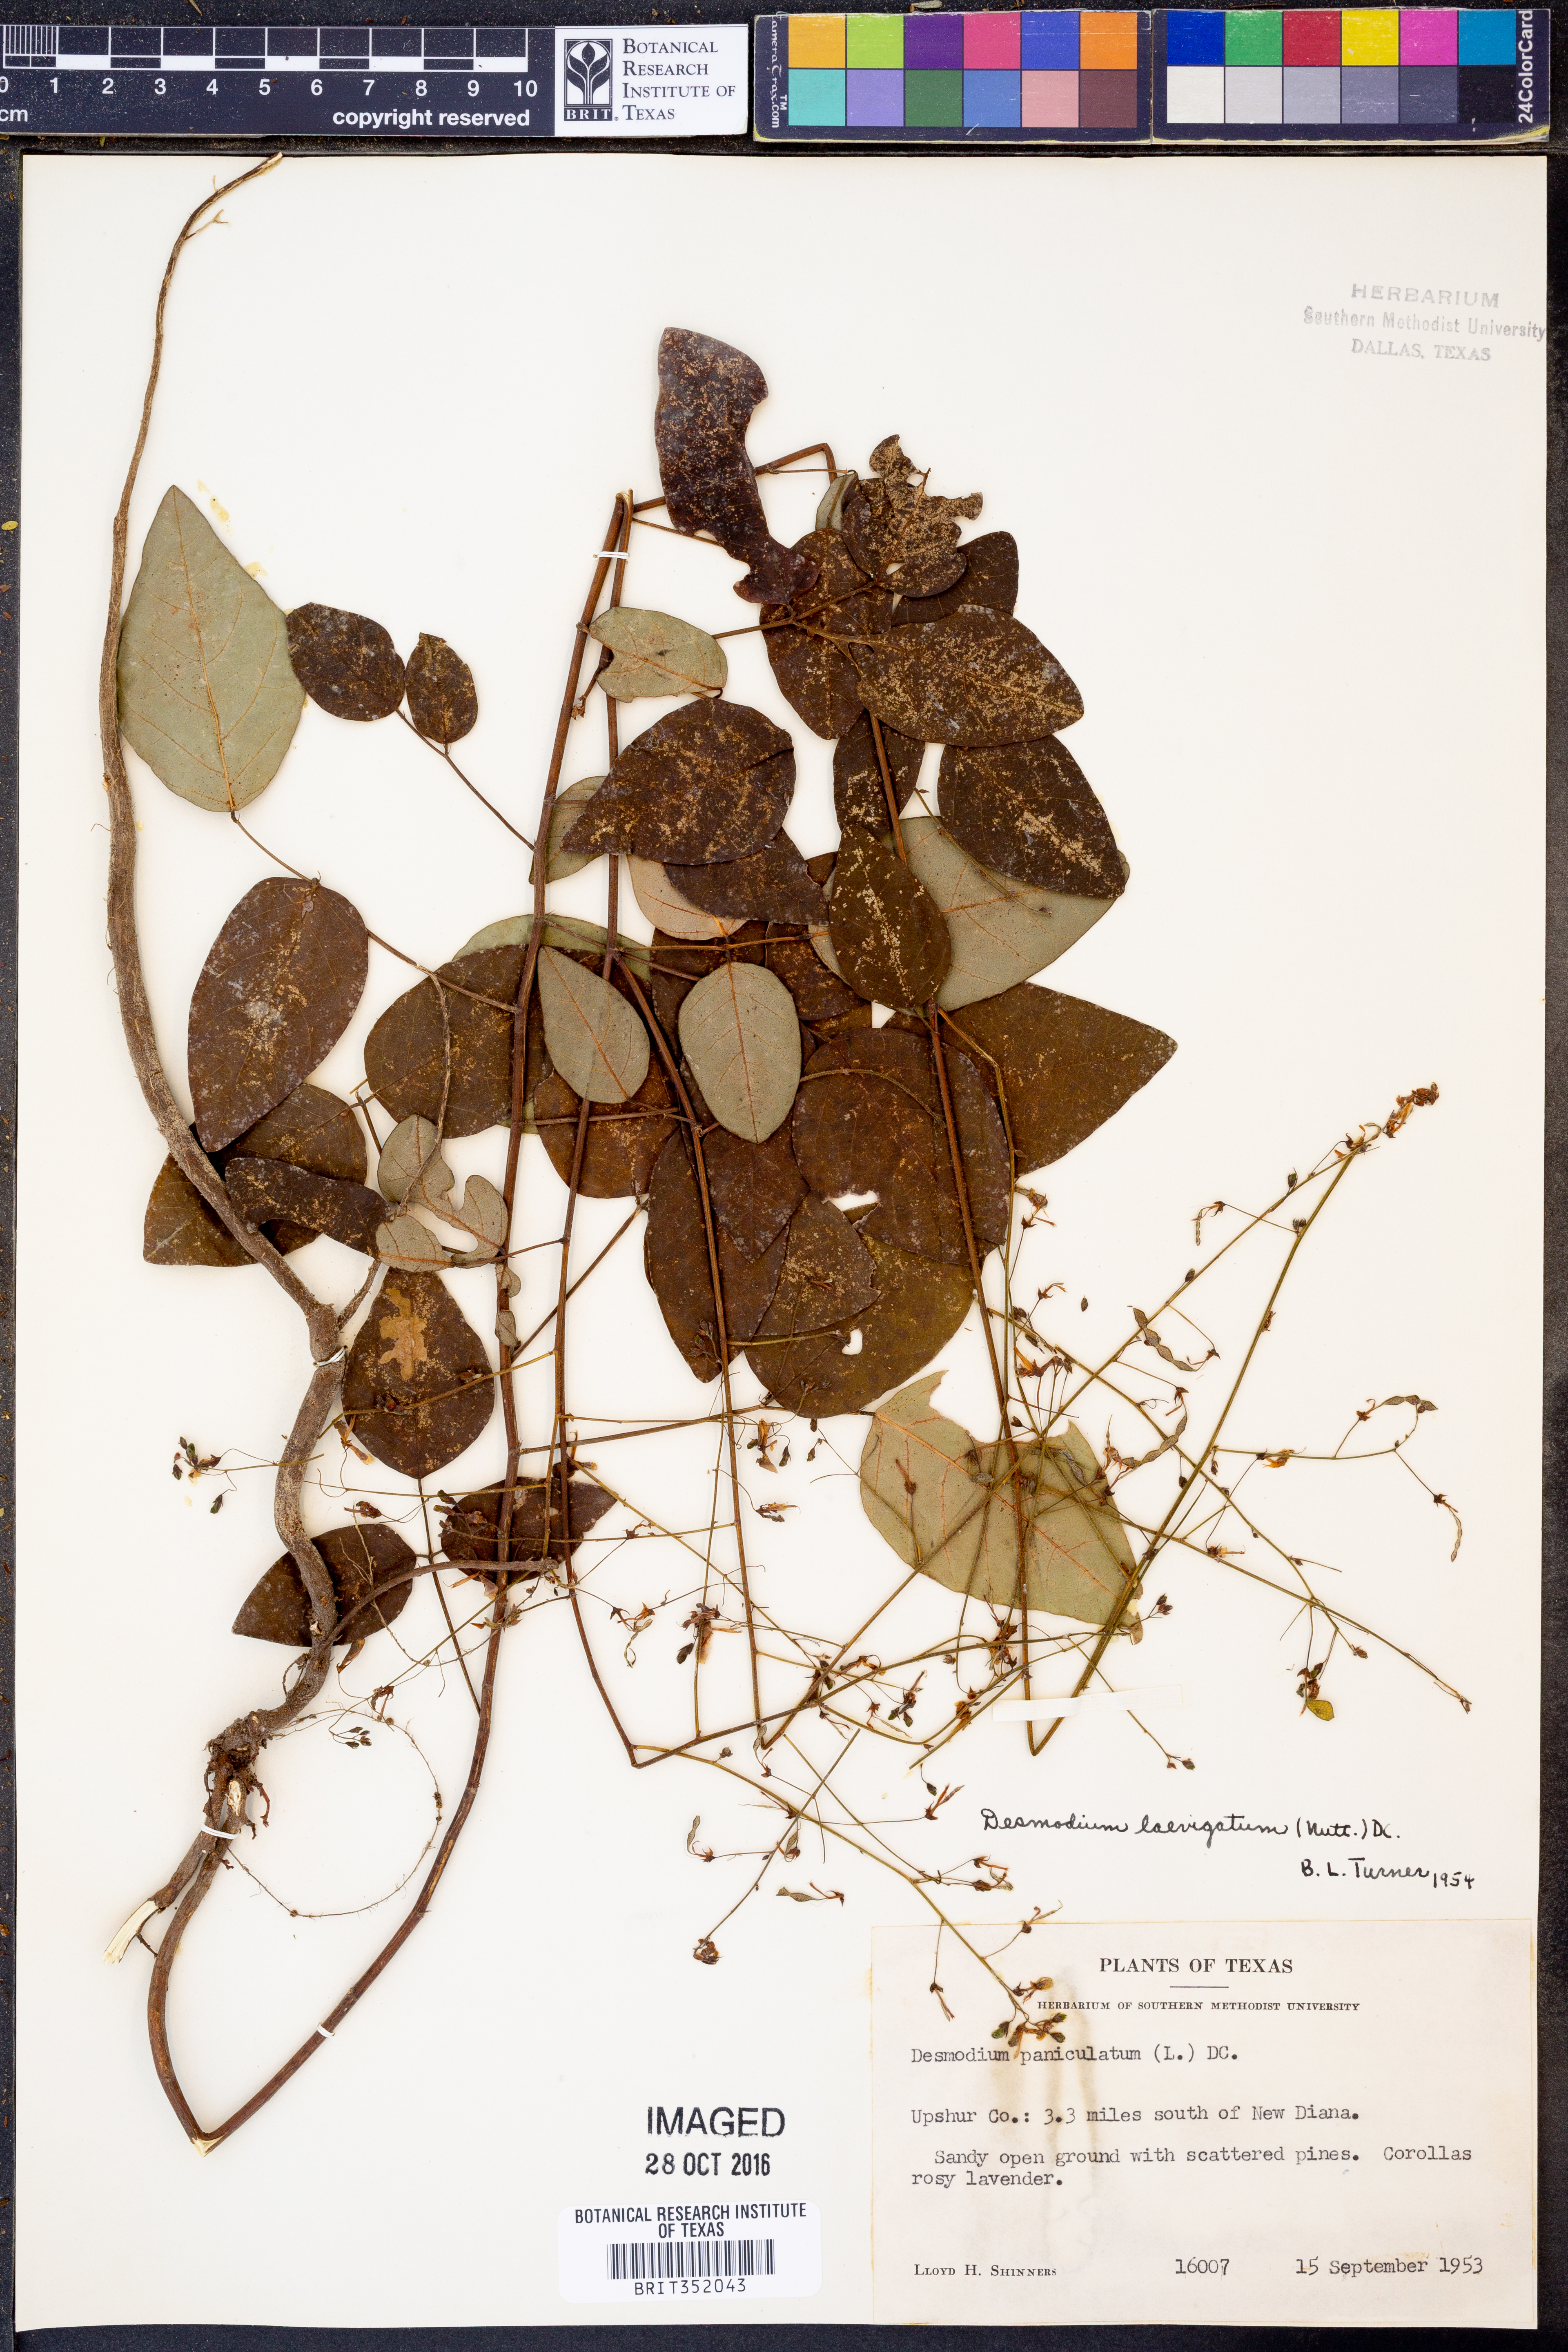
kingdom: Plantae
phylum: Tracheophyta
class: Magnoliopsida
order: Fabales
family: Fabaceae
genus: Desmodium
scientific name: Desmodium paniculatum
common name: Panicled tick-clover
